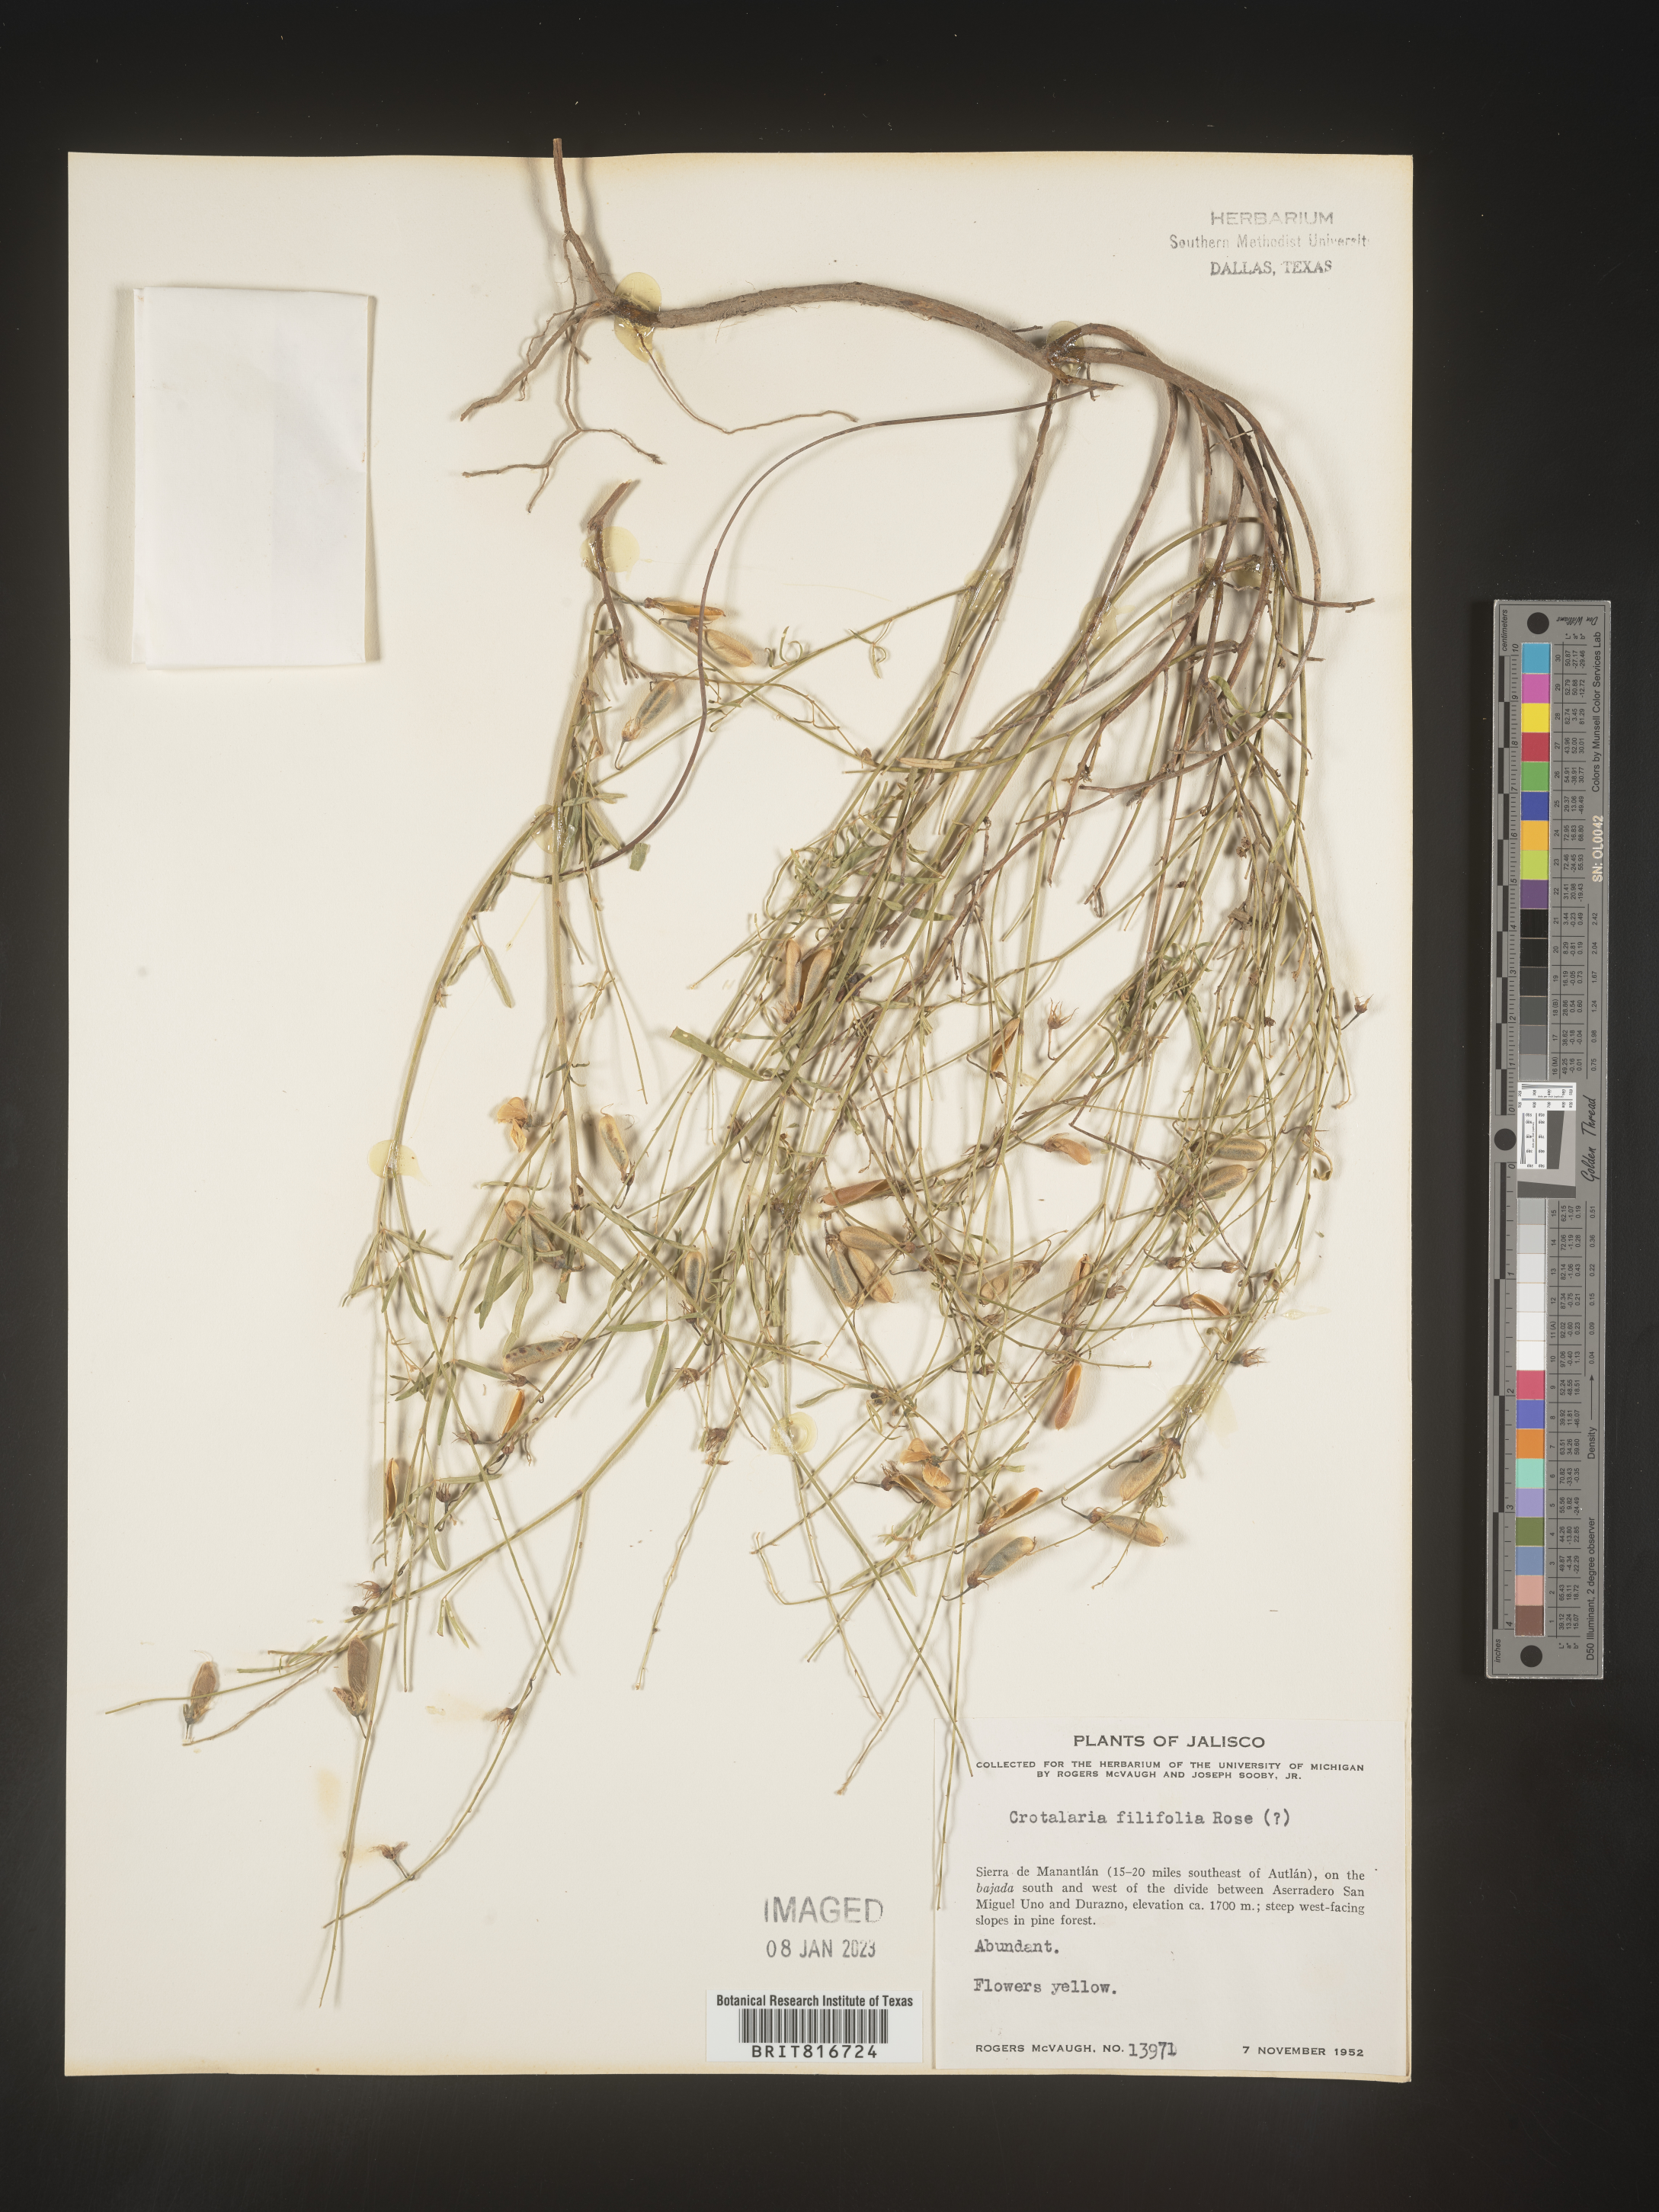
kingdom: Plantae
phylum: Tracheophyta
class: Magnoliopsida
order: Fabales
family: Fabaceae
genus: Crotalaria
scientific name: Crotalaria
